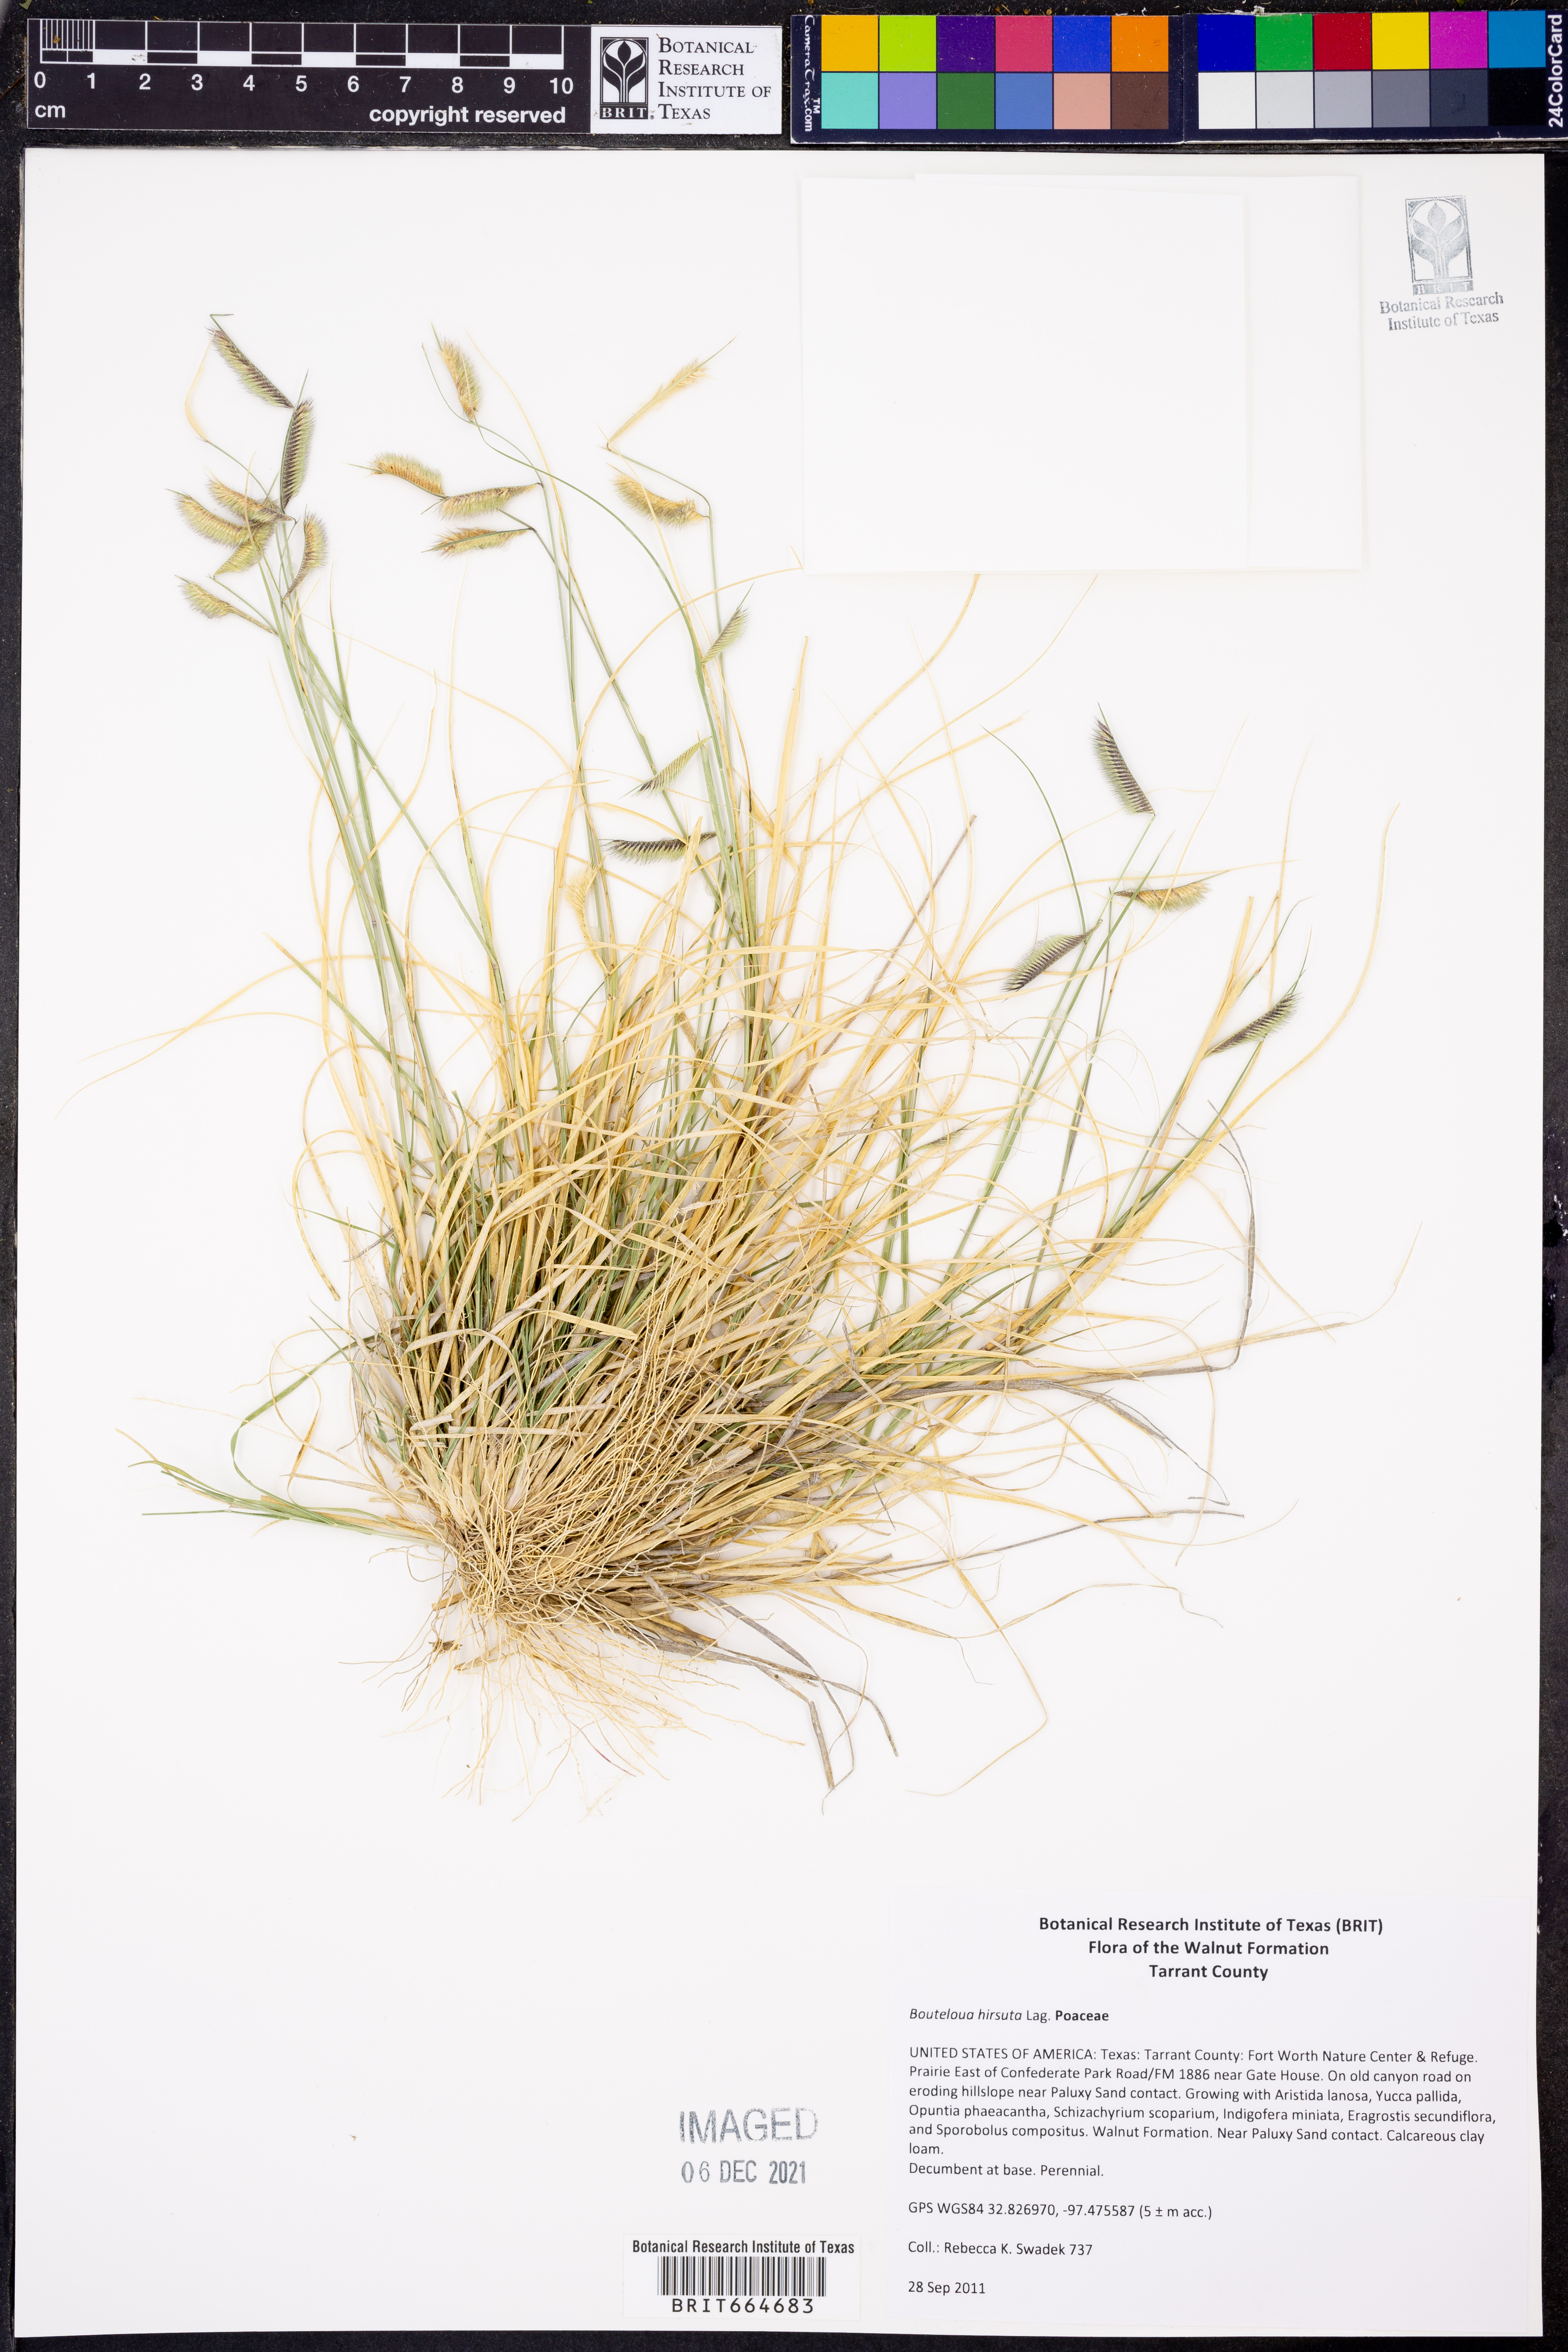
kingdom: Plantae
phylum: Tracheophyta
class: Liliopsida
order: Poales
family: Poaceae
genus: Bouteloua
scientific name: Bouteloua hirsuta
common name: Hairy grama
